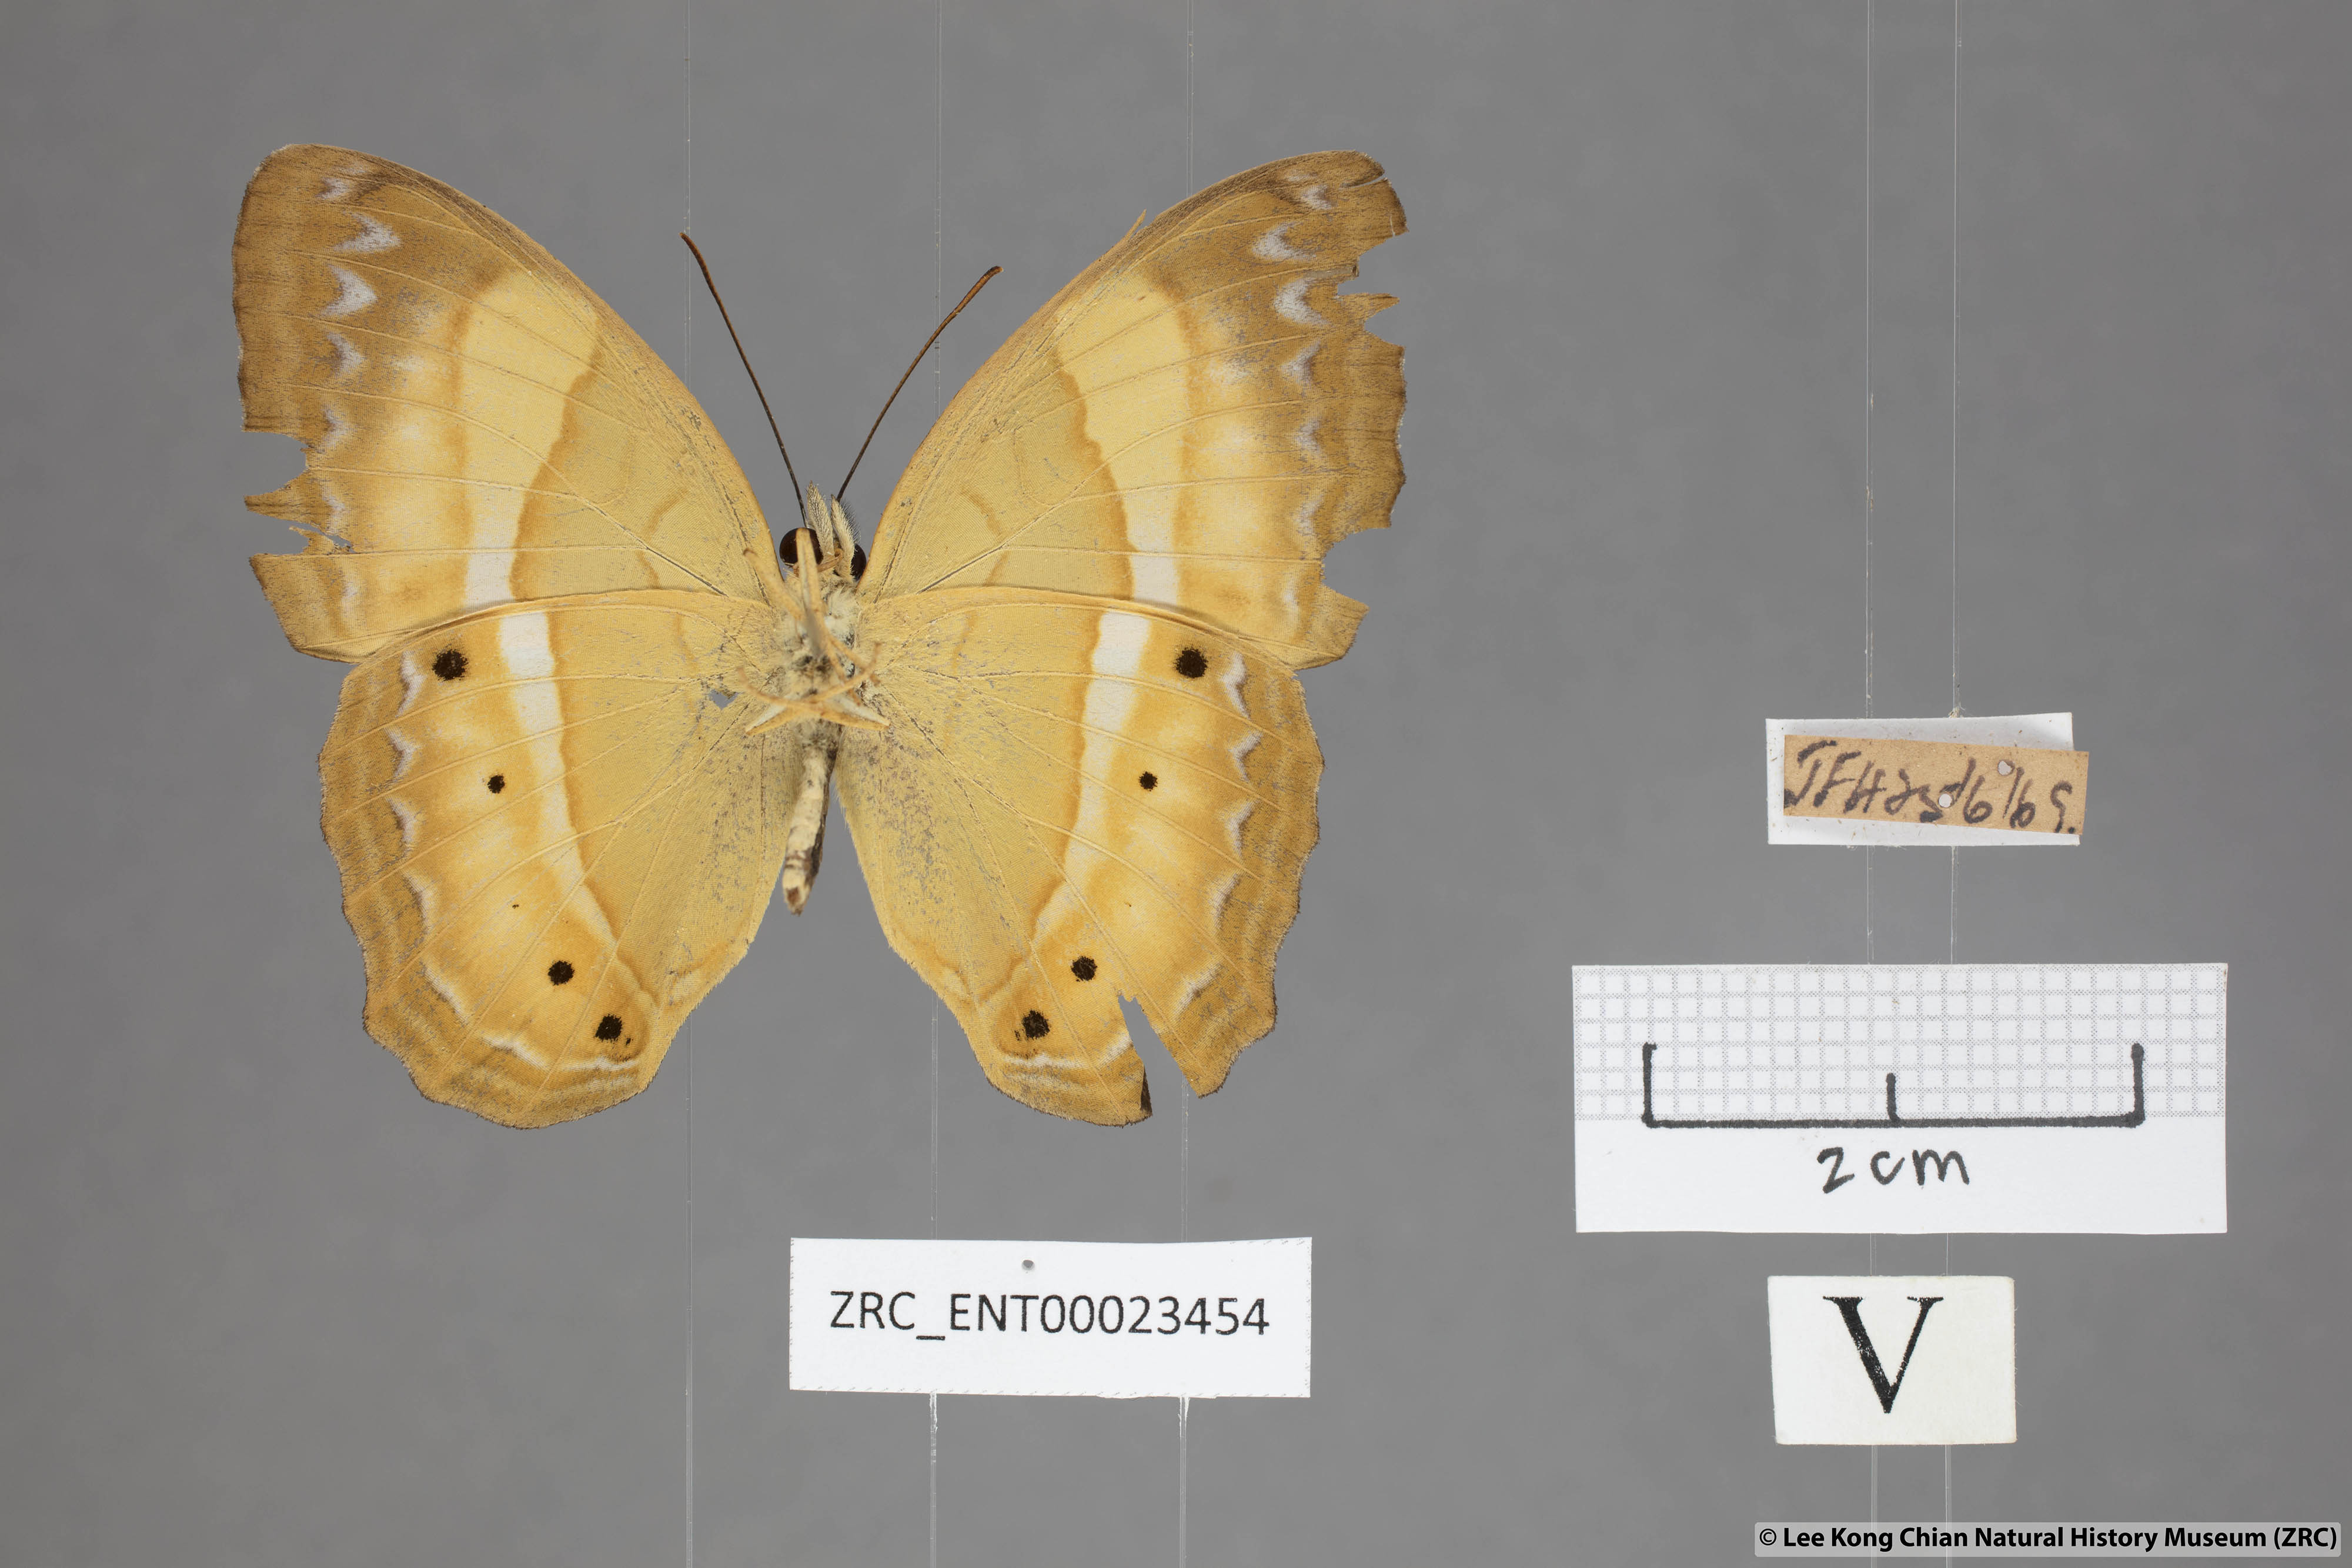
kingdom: Animalia
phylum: Arthropoda
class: Insecta
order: Lepidoptera
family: Nymphalidae
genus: Cirrochroa
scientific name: Cirrochroa satellita
